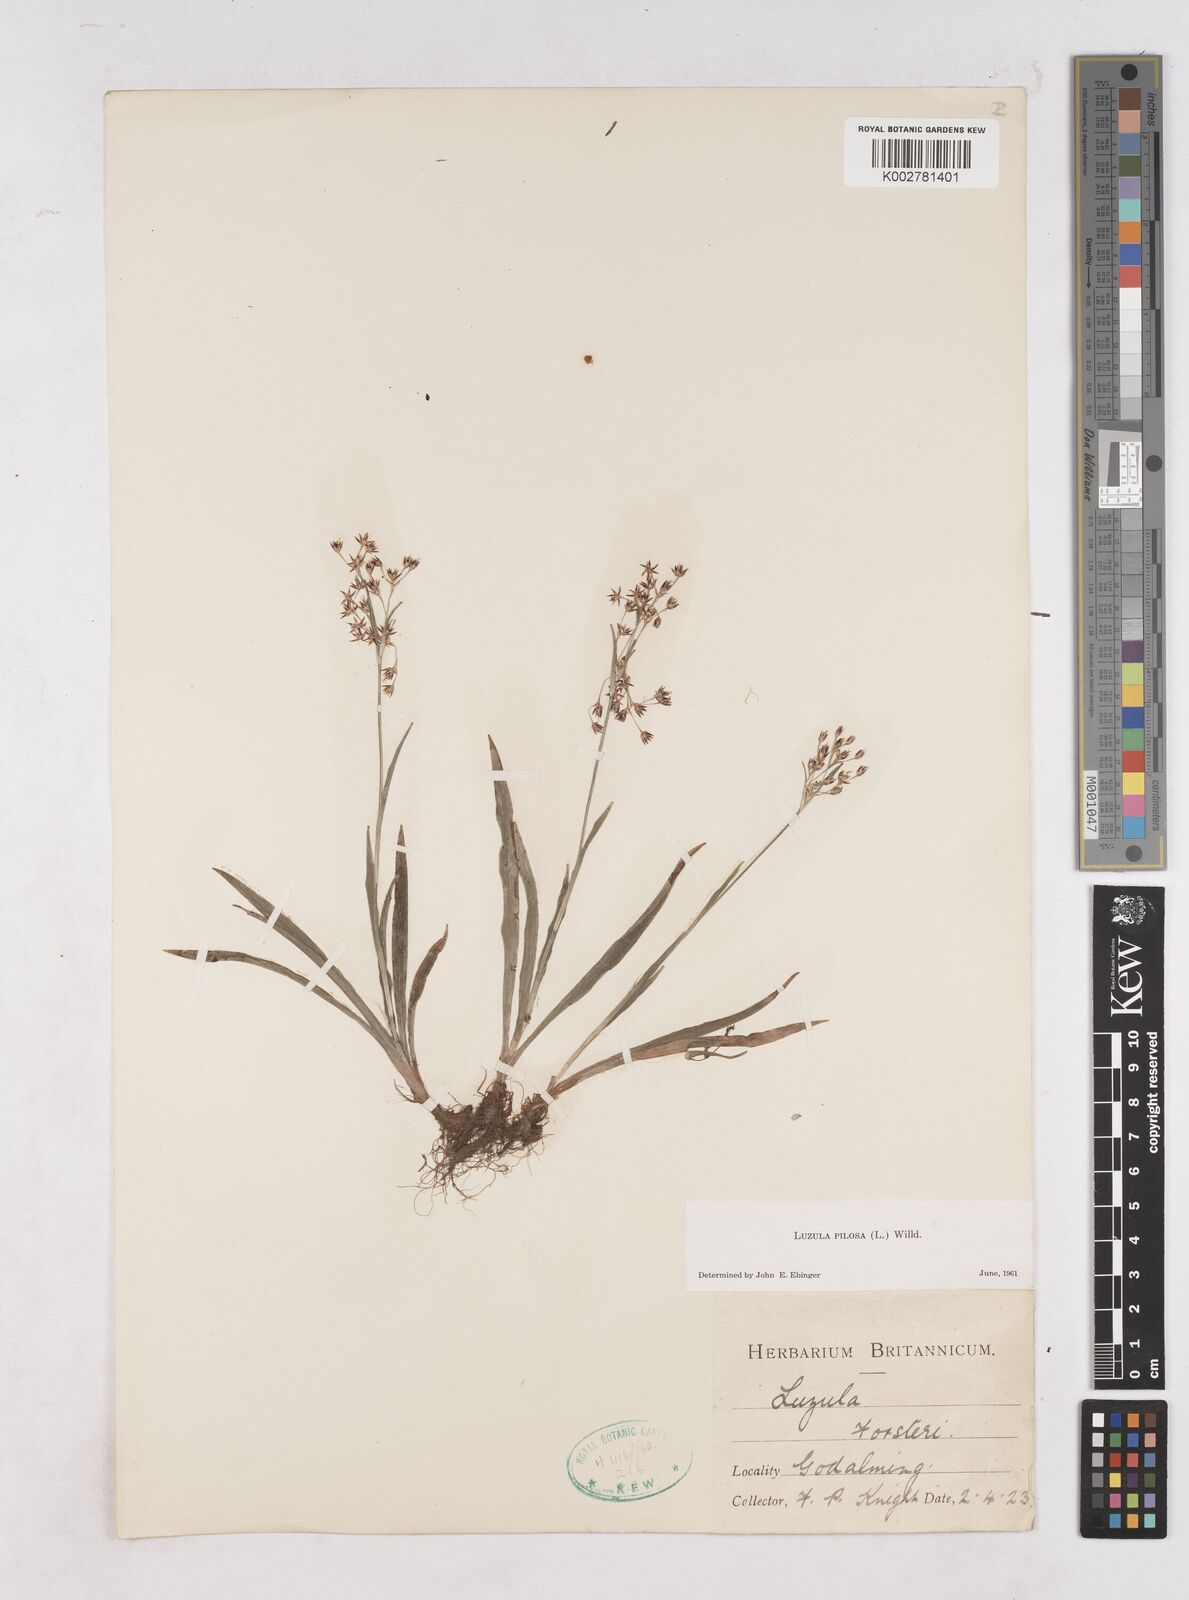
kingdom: Plantae
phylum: Tracheophyta
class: Liliopsida
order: Poales
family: Juncaceae
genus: Luzula
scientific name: Luzula pilosa
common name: Hairy wood-rush
